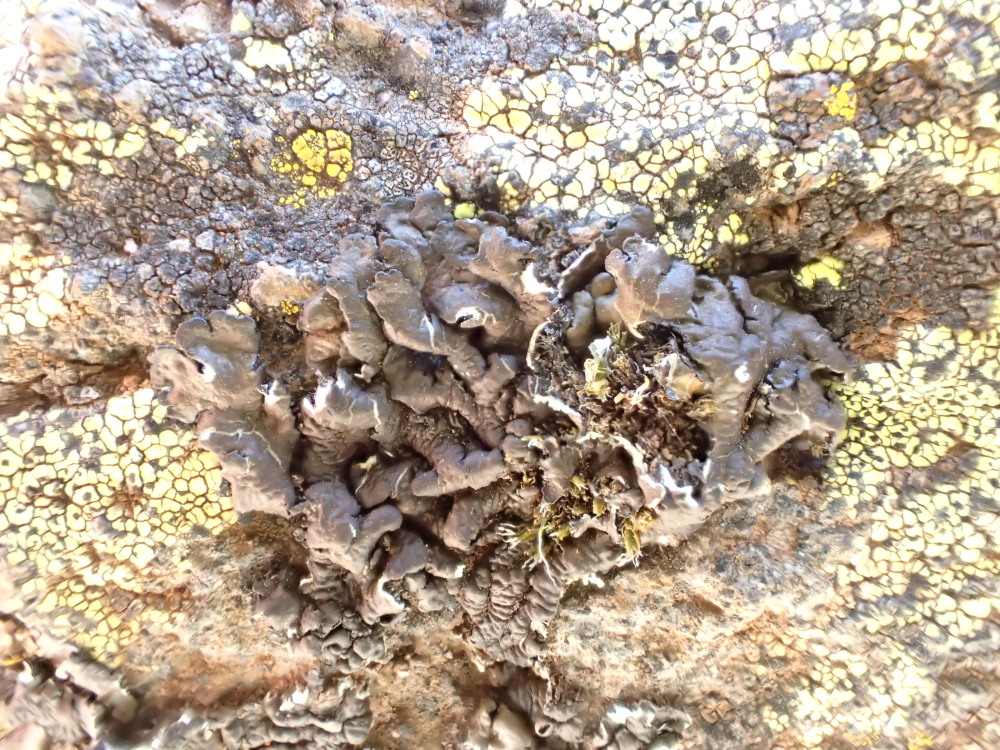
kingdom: Fungi
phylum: Ascomycota
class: Lecanoromycetes
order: Lecanorales
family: Parmeliaceae
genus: Xanthoparmelia
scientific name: Xanthoparmelia pulla
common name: mørkebrun skållav
